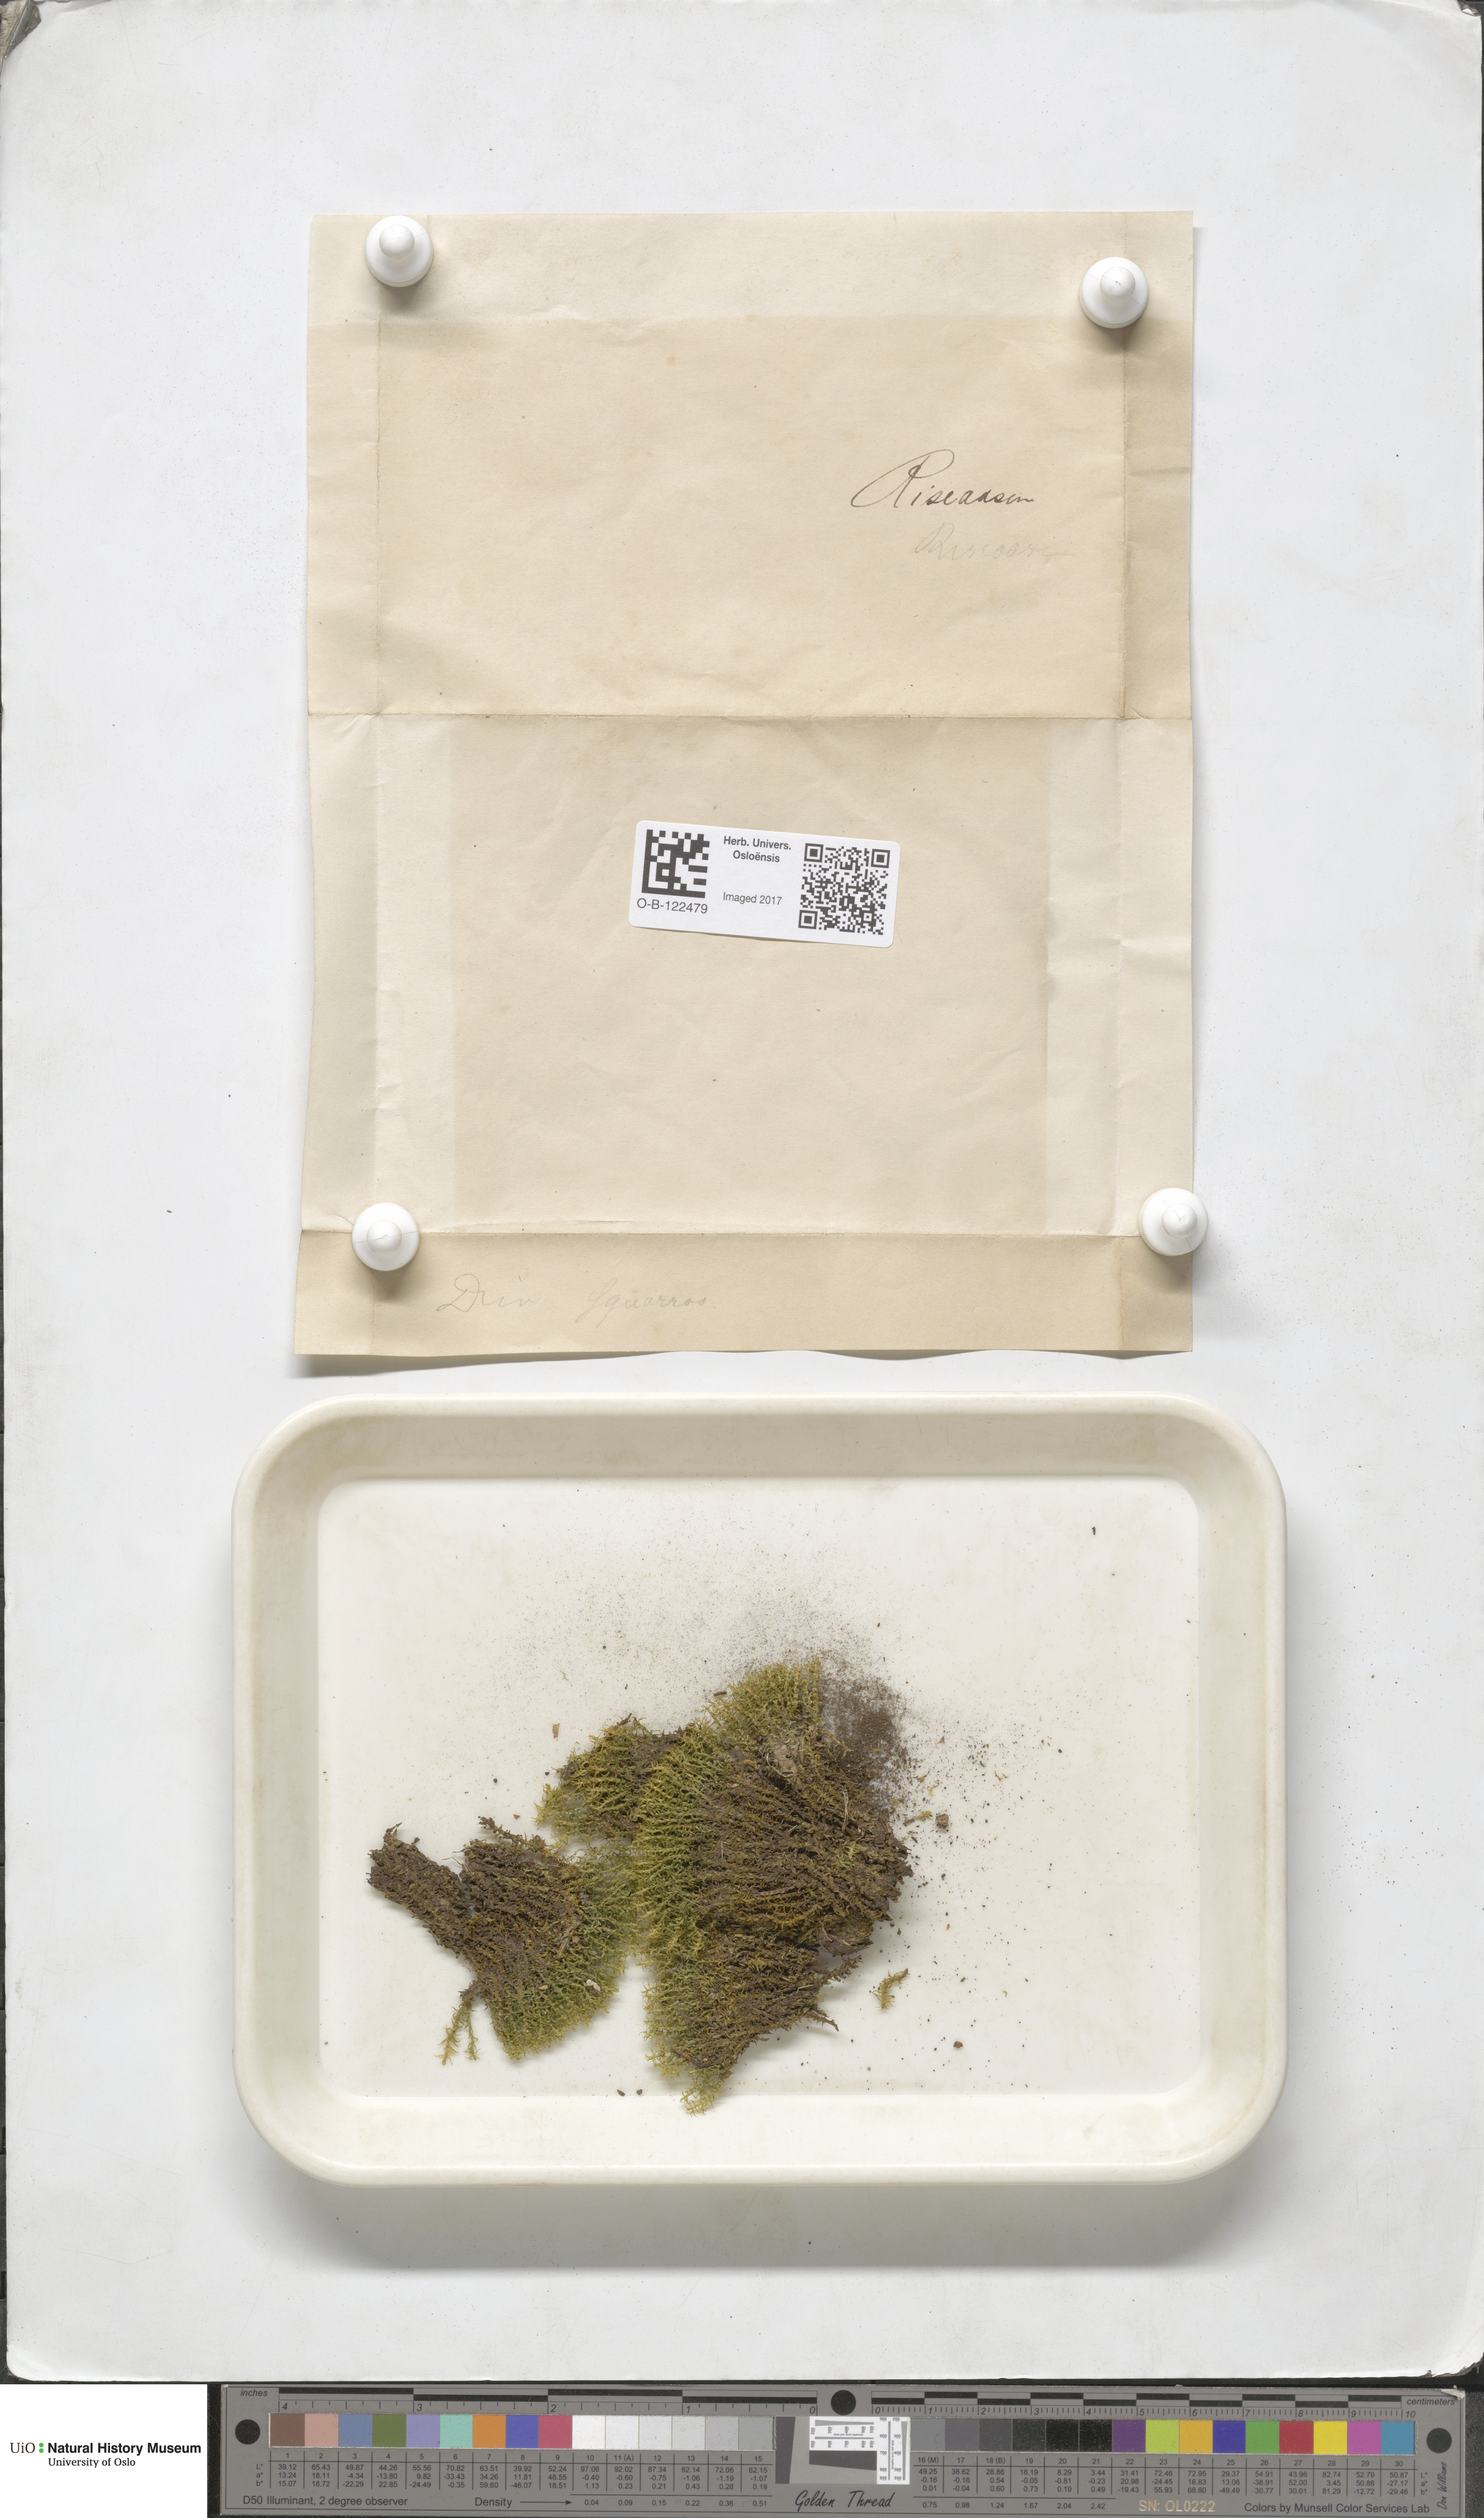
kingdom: Plantae
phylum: Bryophyta
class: Bryopsida
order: Dicranales
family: Aongstroemiaceae
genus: Diobelonella
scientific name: Diobelonella palustris
